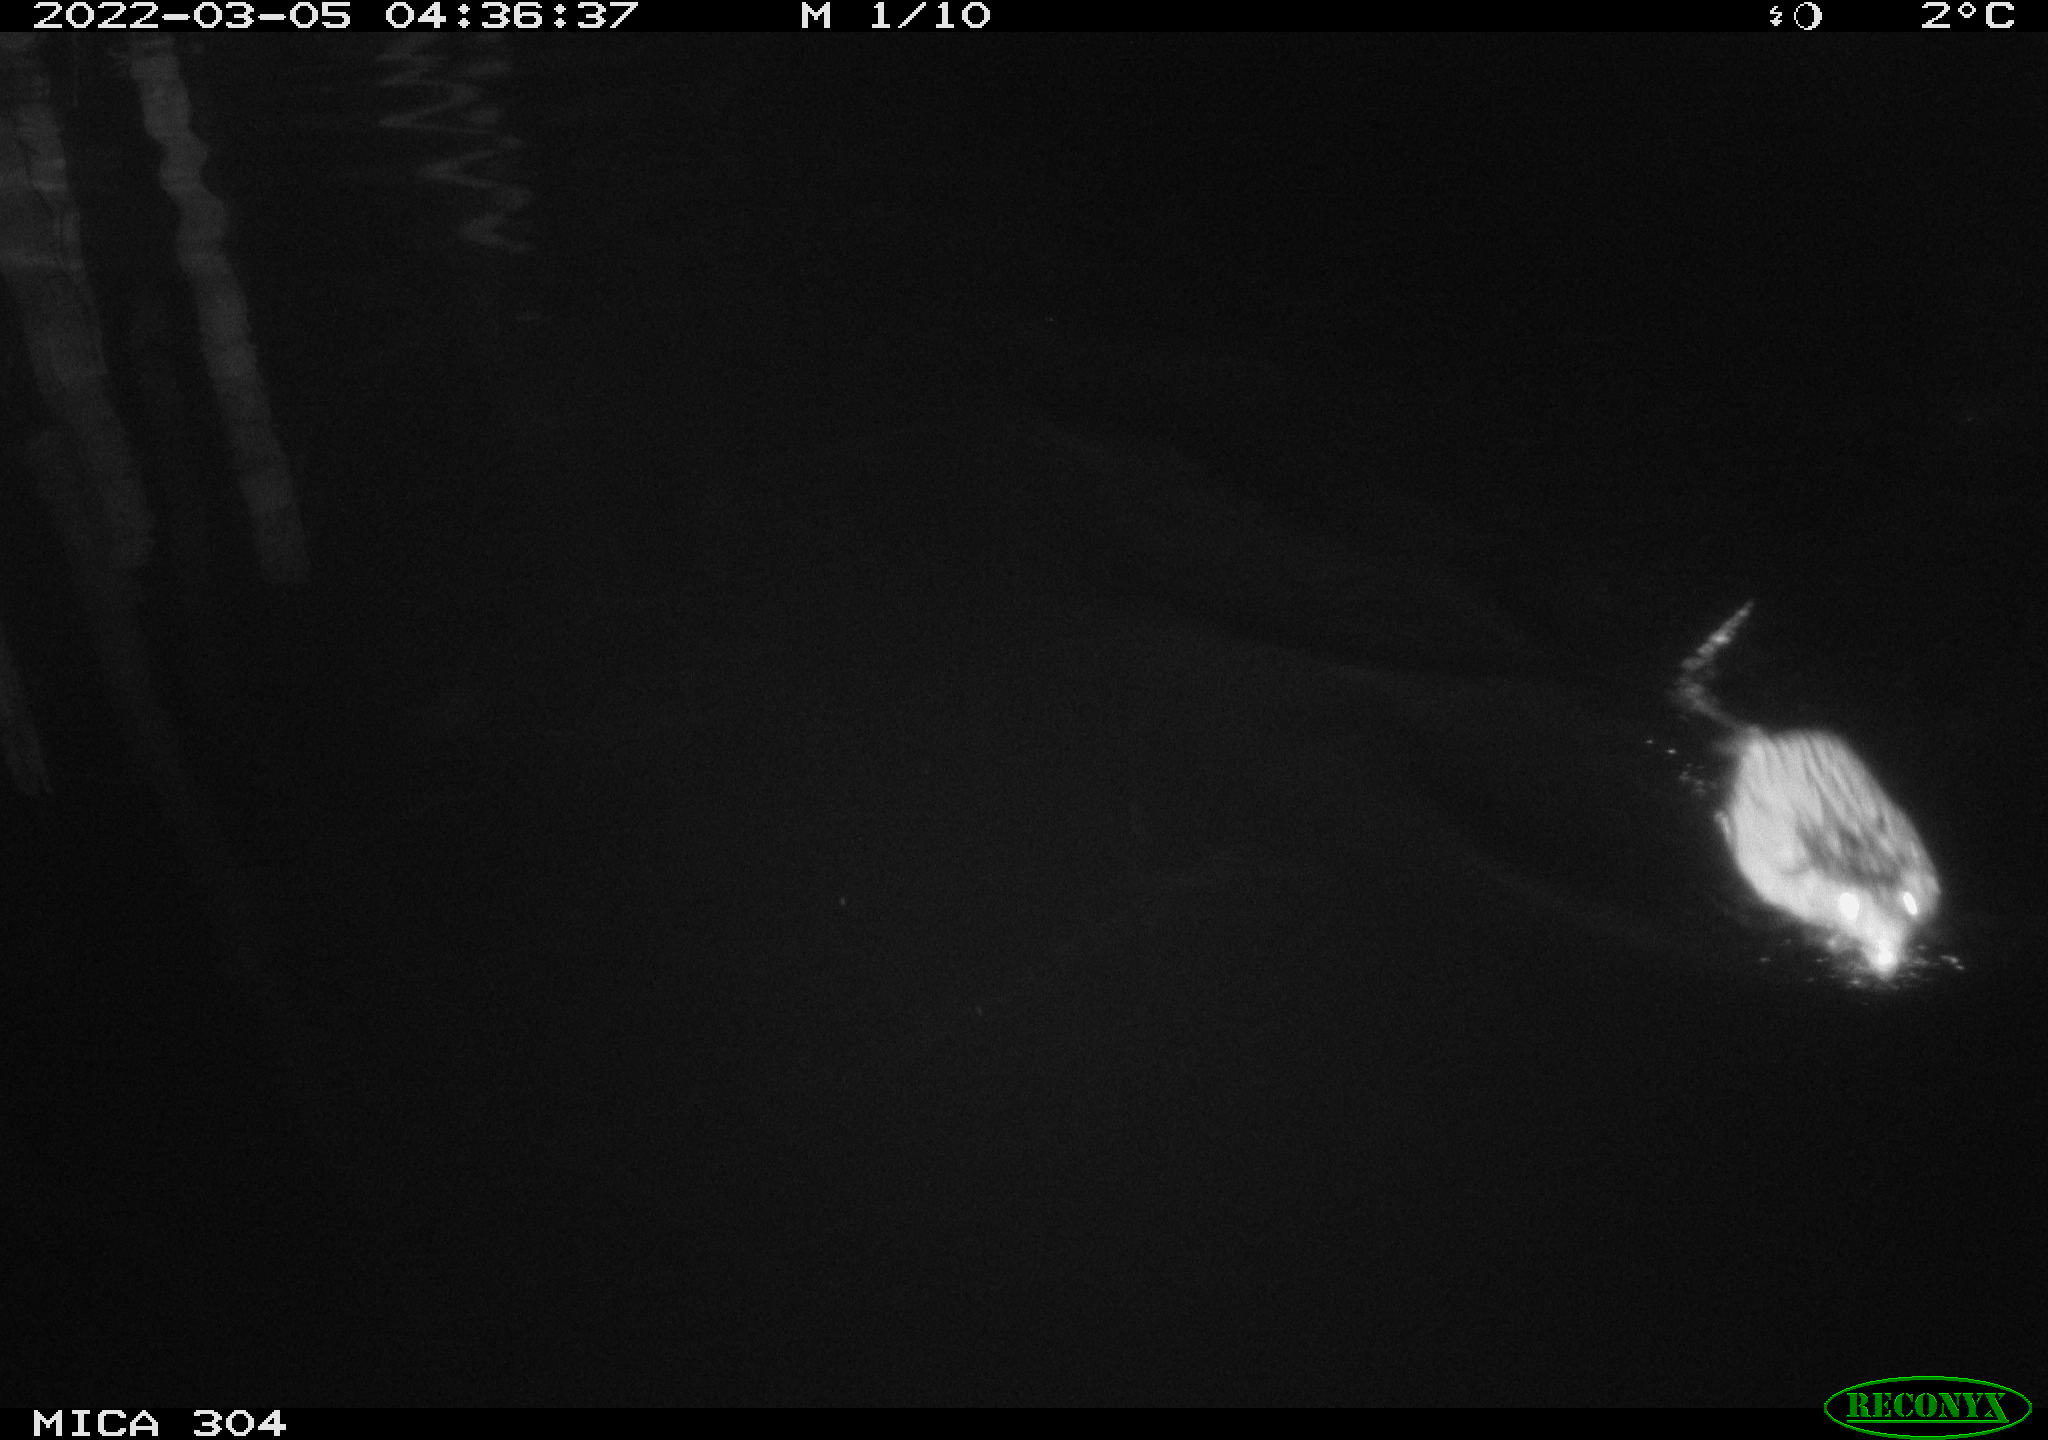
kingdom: Animalia
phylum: Chordata
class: Mammalia
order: Rodentia
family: Cricetidae
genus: Ondatra
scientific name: Ondatra zibethicus
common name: Muskrat
